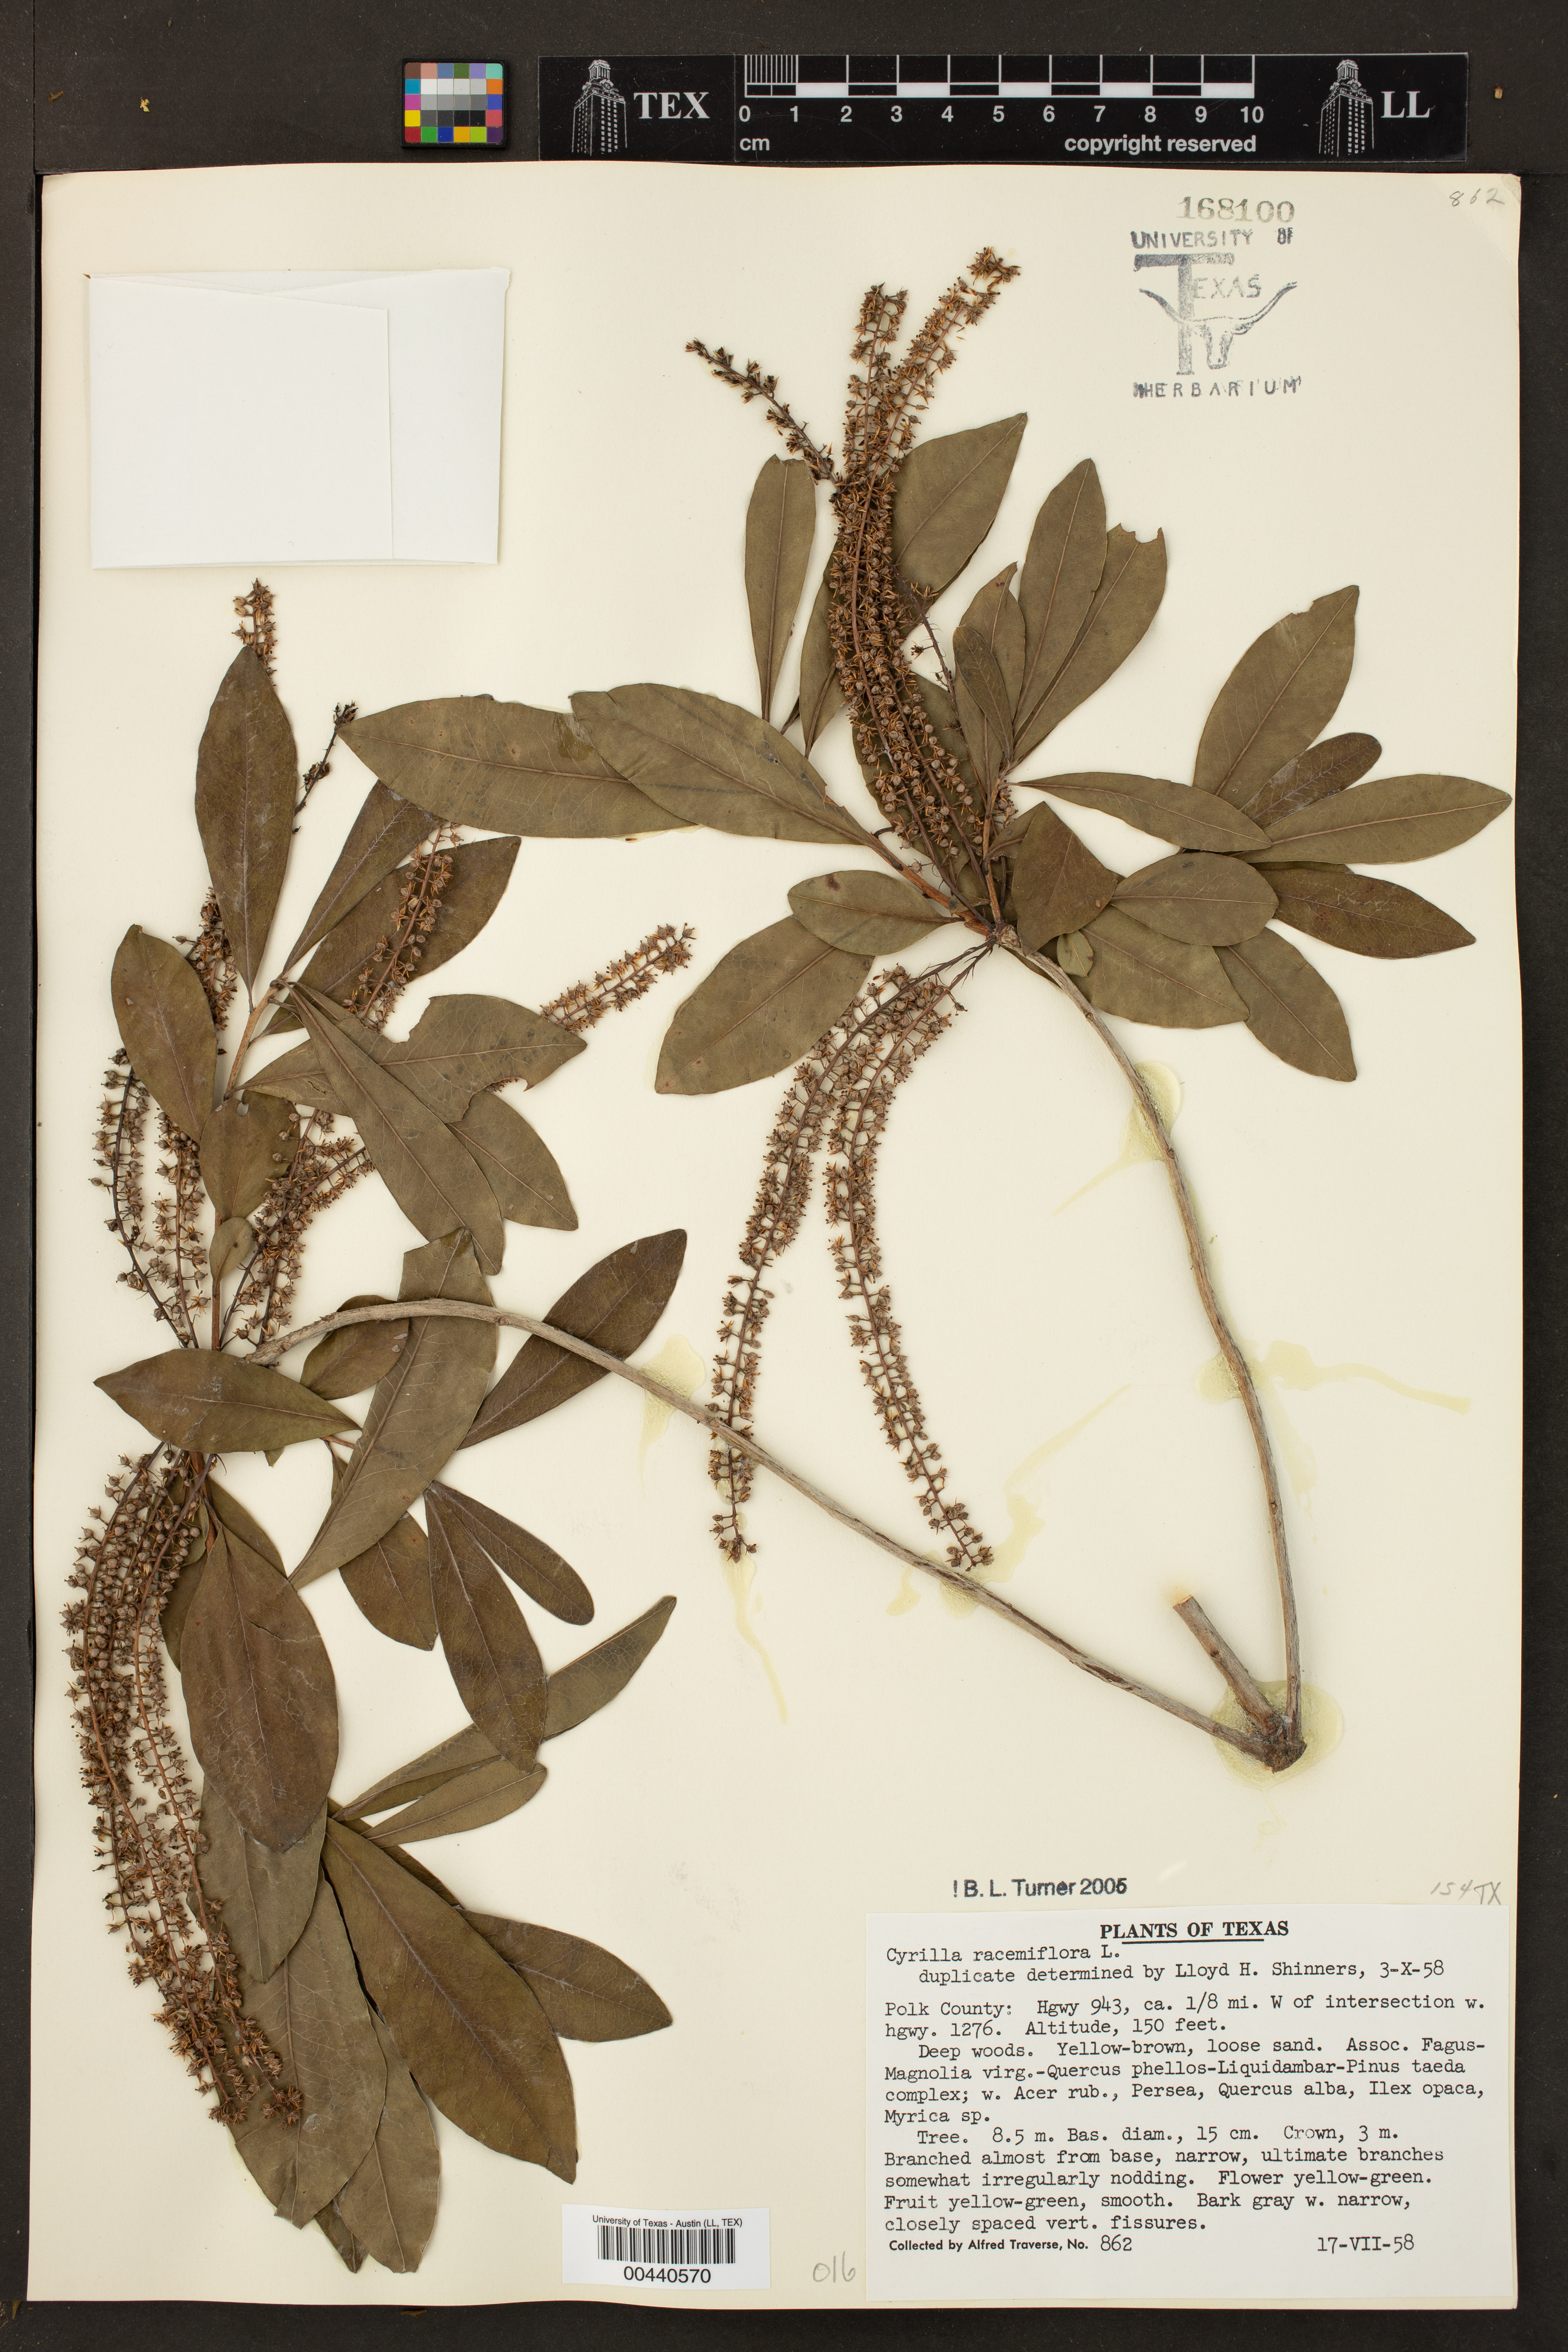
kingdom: Plantae
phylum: Tracheophyta
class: Magnoliopsida
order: Ericales
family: Cyrillaceae
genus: Cyrilla
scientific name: Cyrilla racemiflora
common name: Black titi
